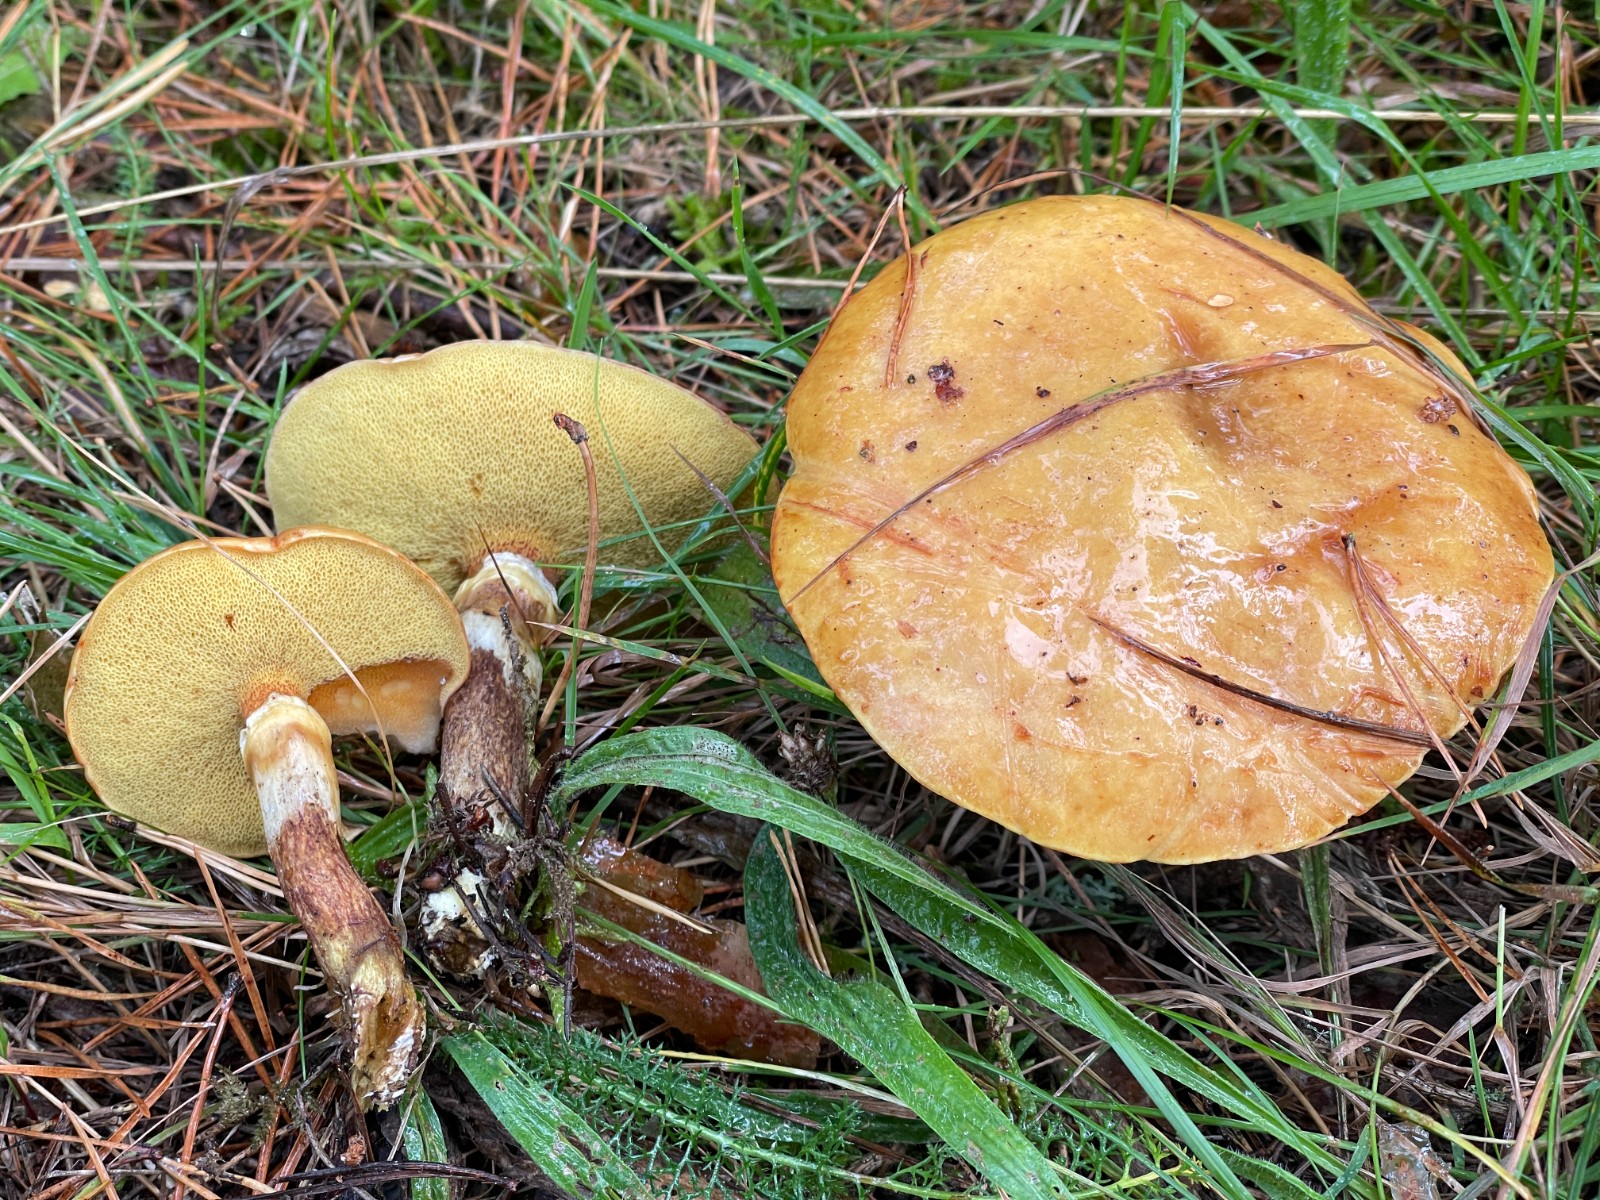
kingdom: Fungi
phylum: Basidiomycota
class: Agaricomycetes
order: Boletales
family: Suillaceae
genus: Suillus
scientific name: Suillus grevillei
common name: lærke-slimrørhat
